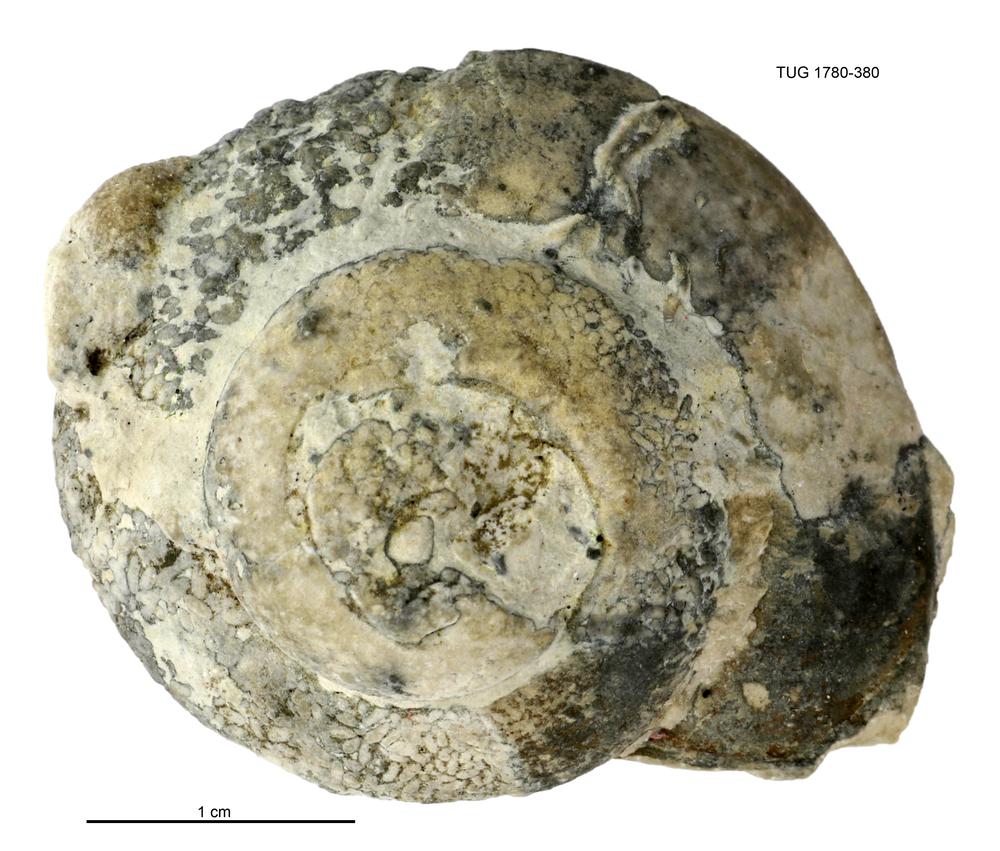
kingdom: Animalia
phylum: Mollusca
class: Gastropoda
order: Pleurotomariida
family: Eotomariidae
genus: Liospira
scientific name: Liospira Raphistoma wesenbergense
